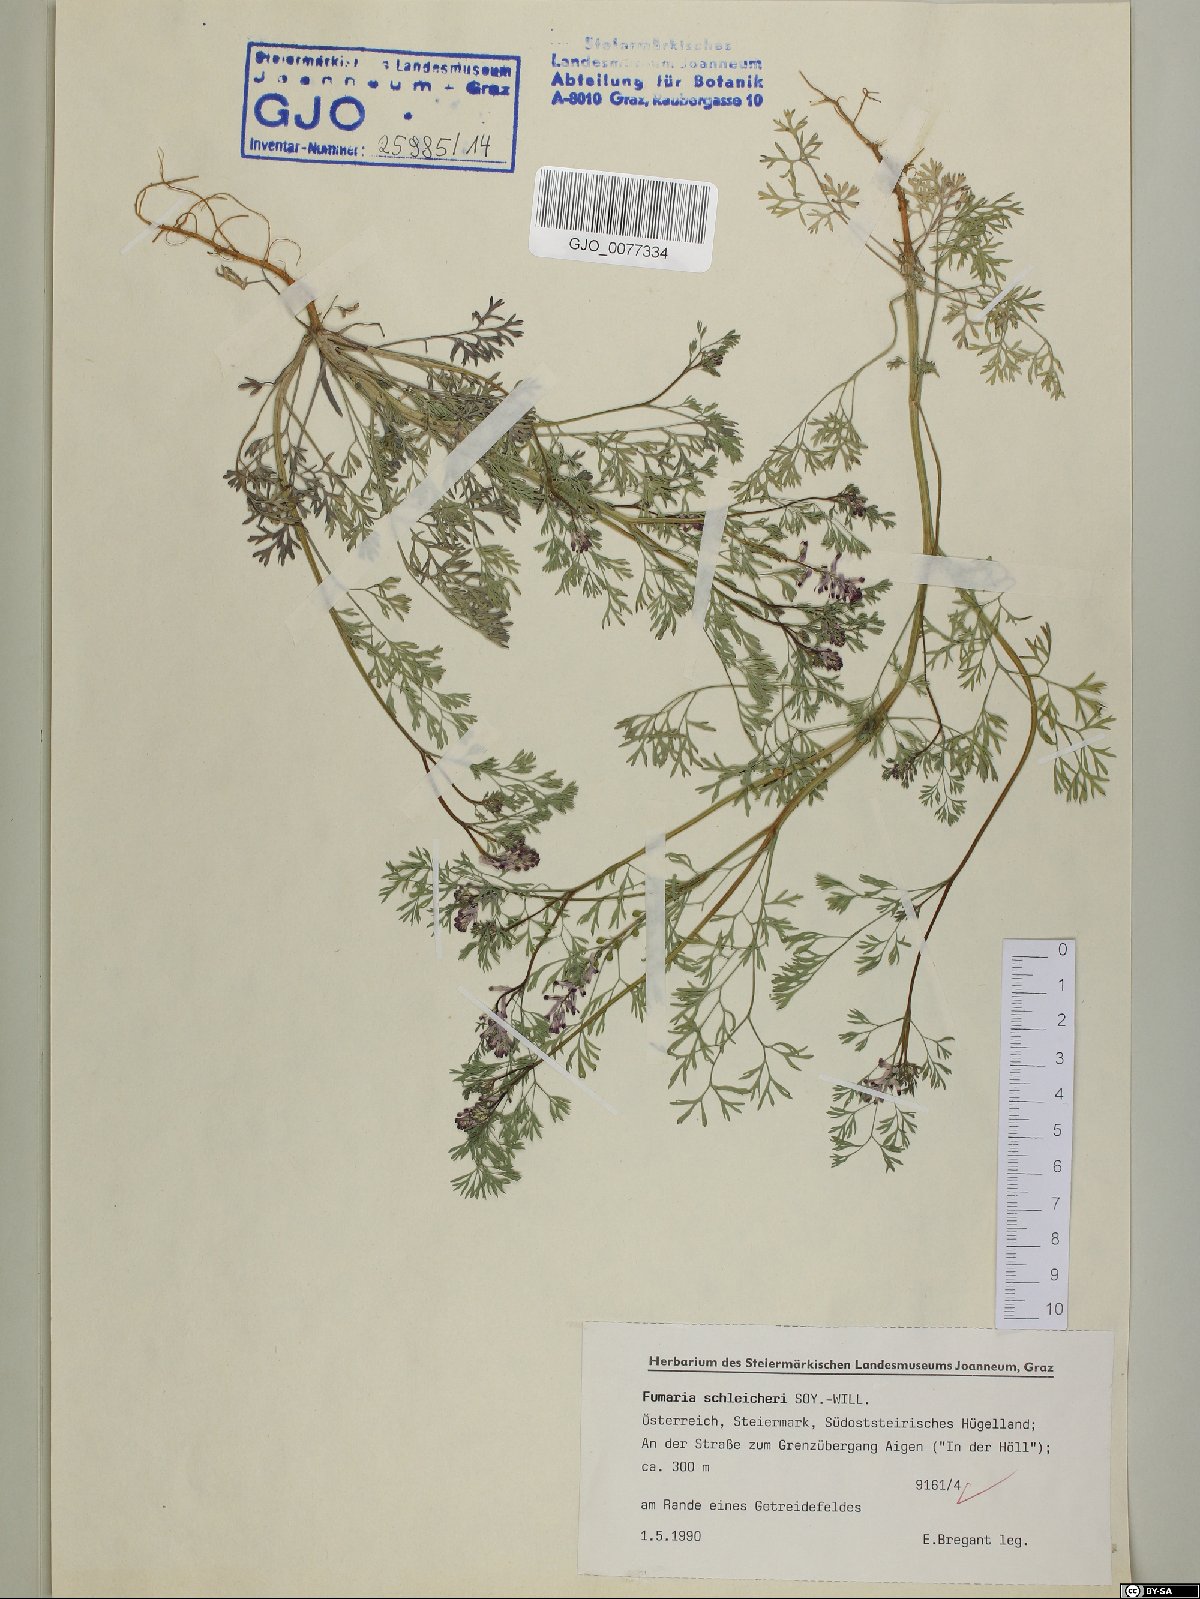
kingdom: Plantae
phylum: Tracheophyta
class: Magnoliopsida
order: Ranunculales
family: Papaveraceae
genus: Fumaria
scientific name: Fumaria schleicheri
